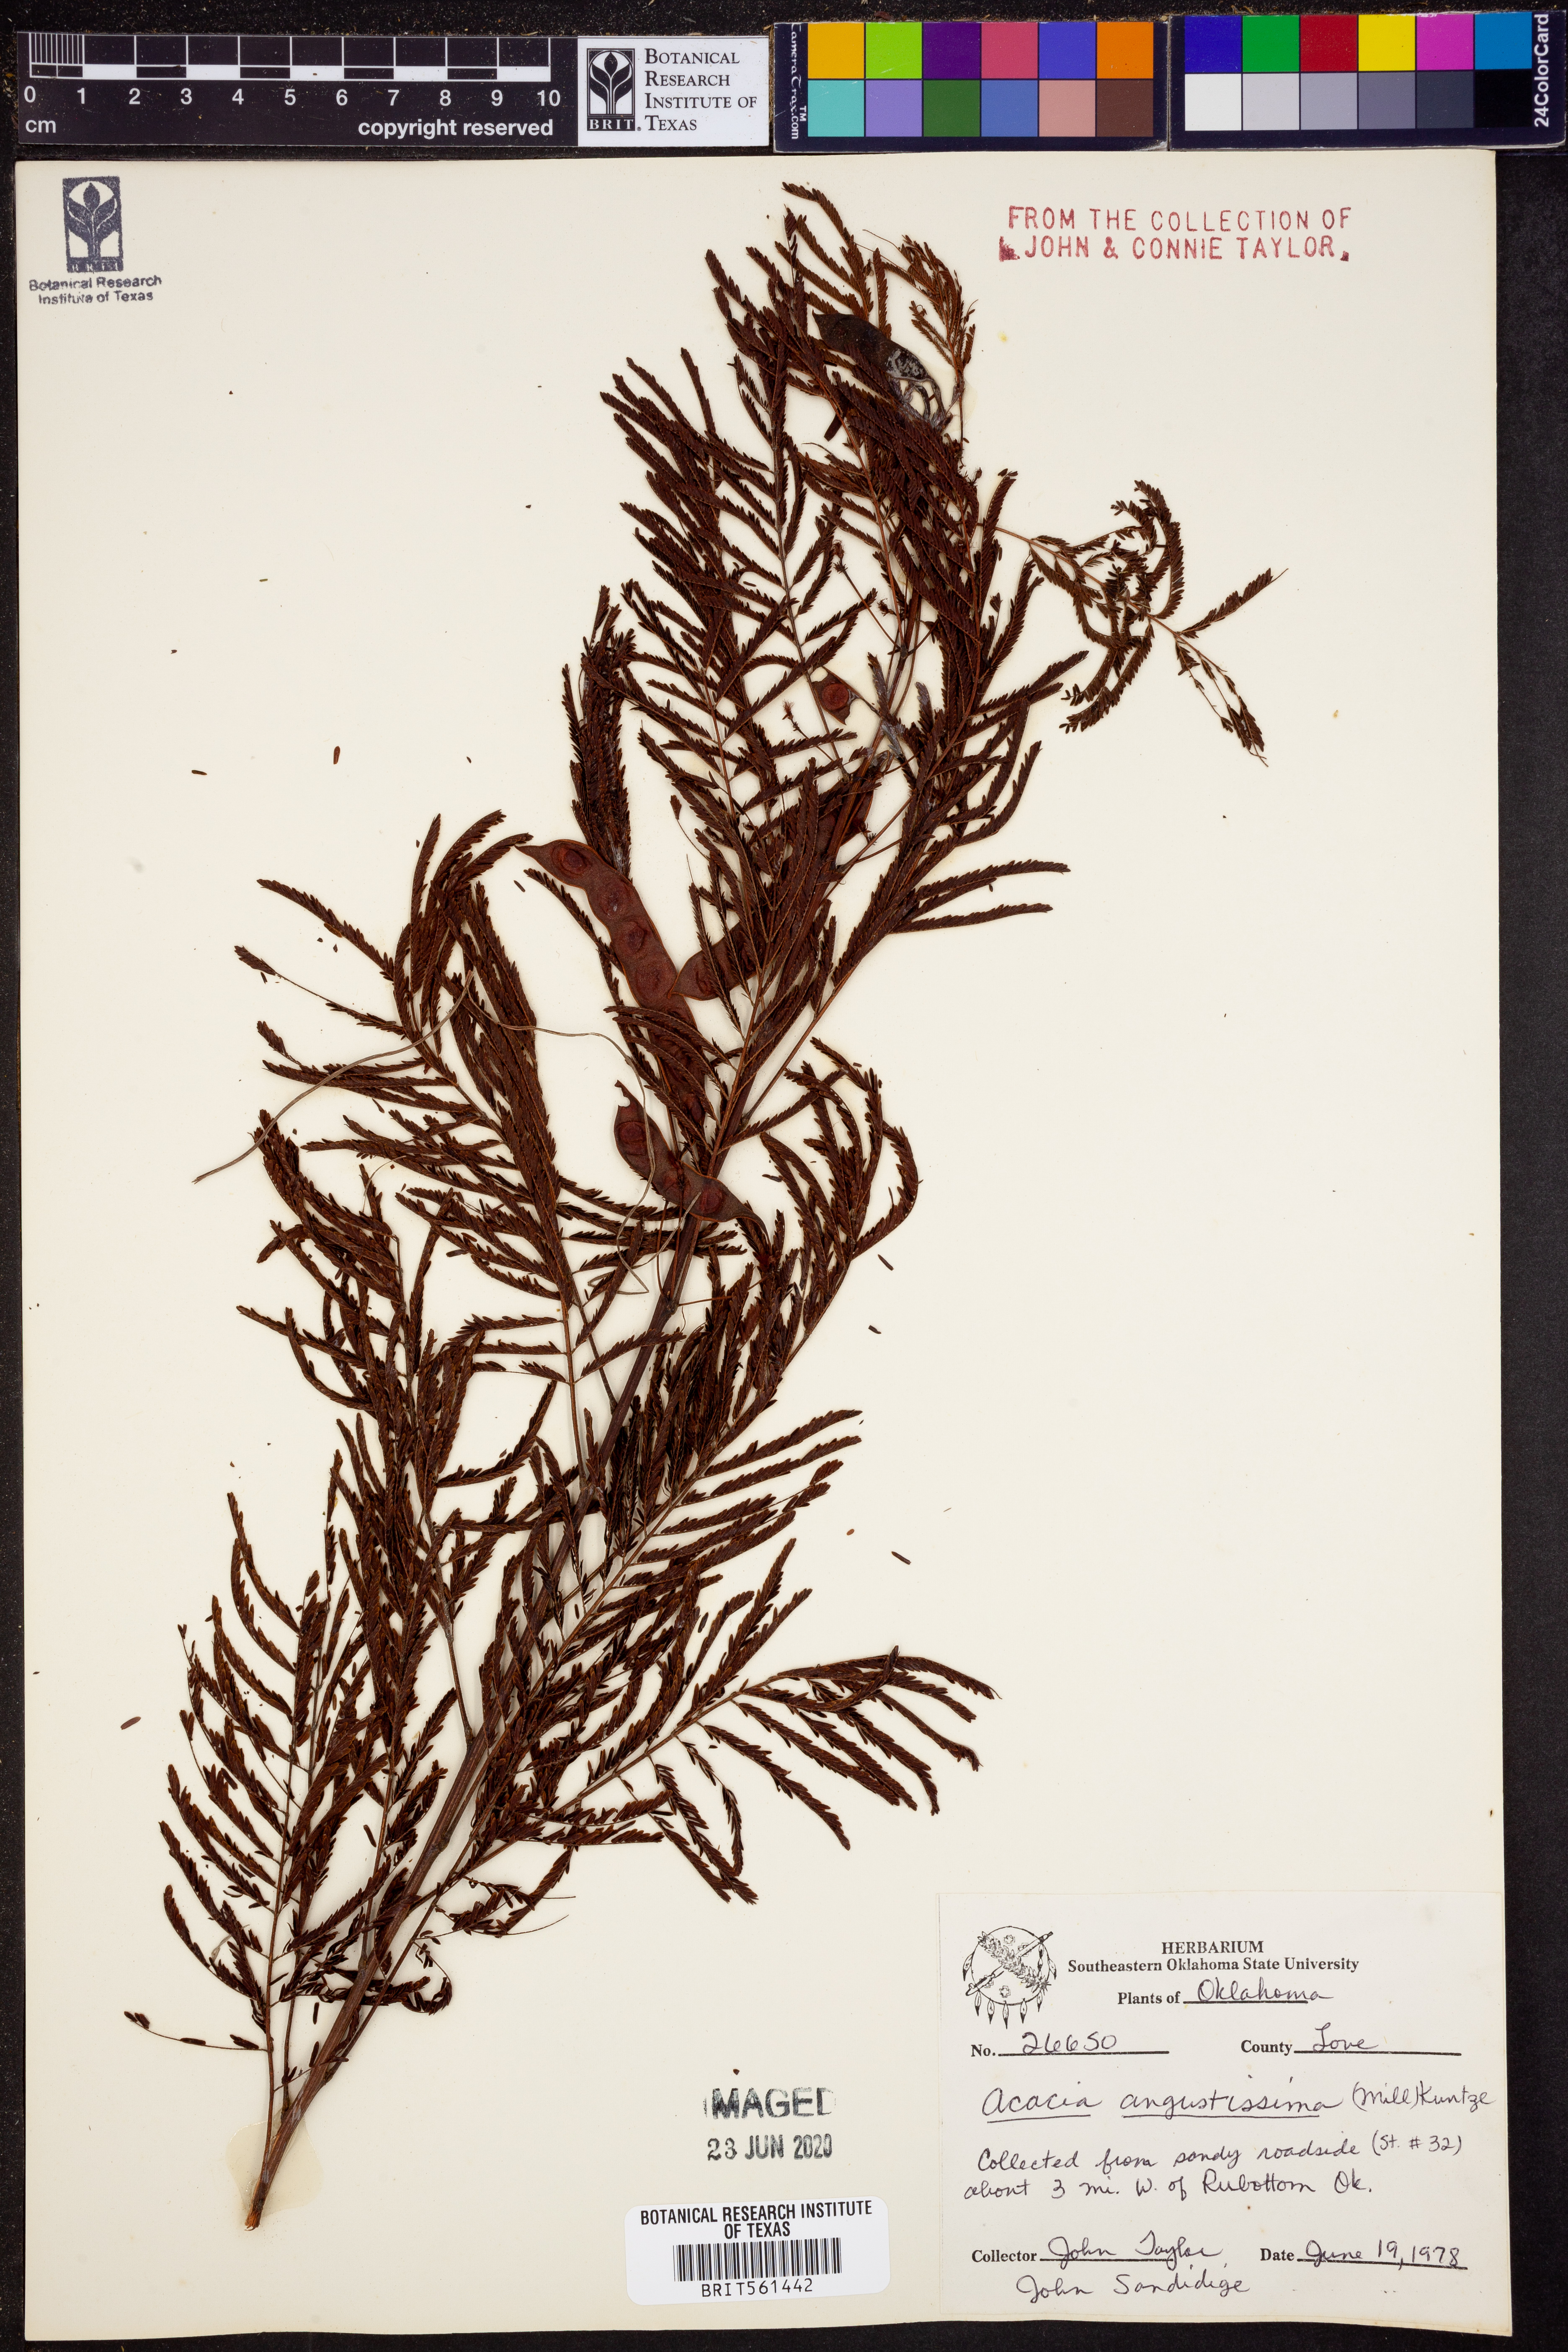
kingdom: Plantae
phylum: Tracheophyta
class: Magnoliopsida
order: Fabales
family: Fabaceae
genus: Acaciella
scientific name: Acaciella angustissima
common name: Prairie acacia
